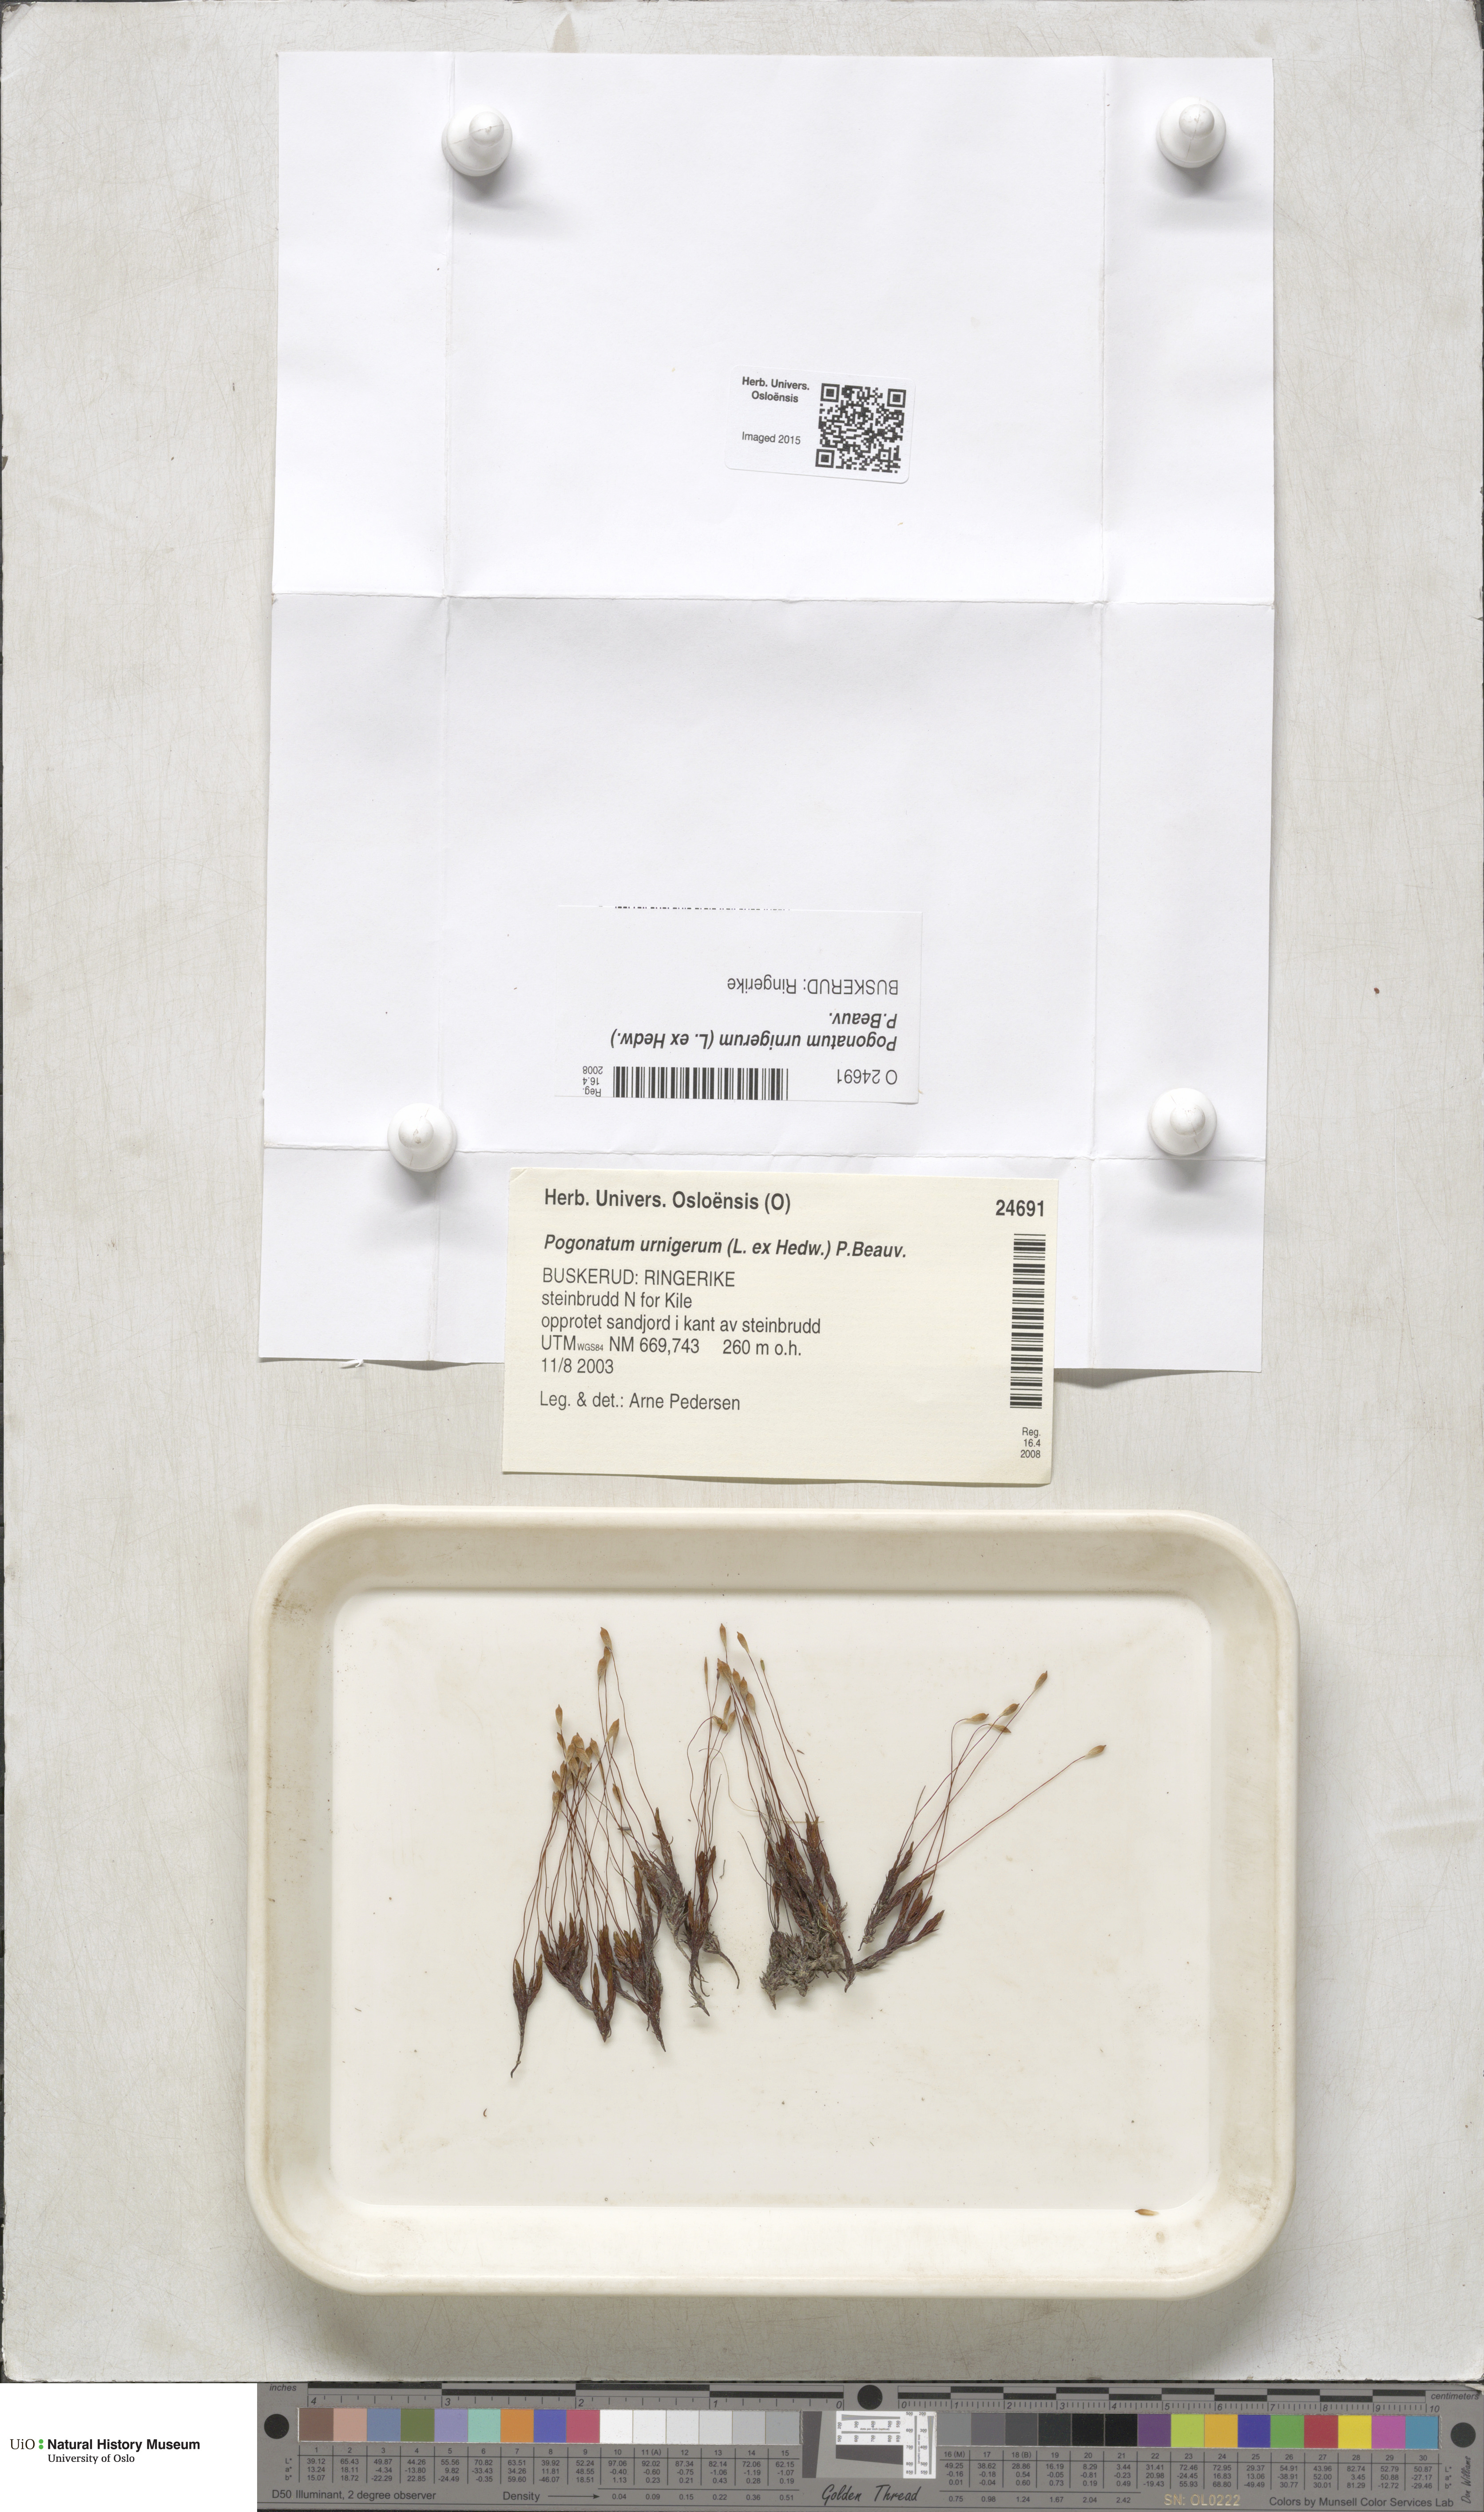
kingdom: Plantae
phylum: Bryophyta
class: Polytrichopsida
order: Polytrichales
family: Polytrichaceae
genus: Pogonatum
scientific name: Pogonatum urnigerum
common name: Urn hair moss
